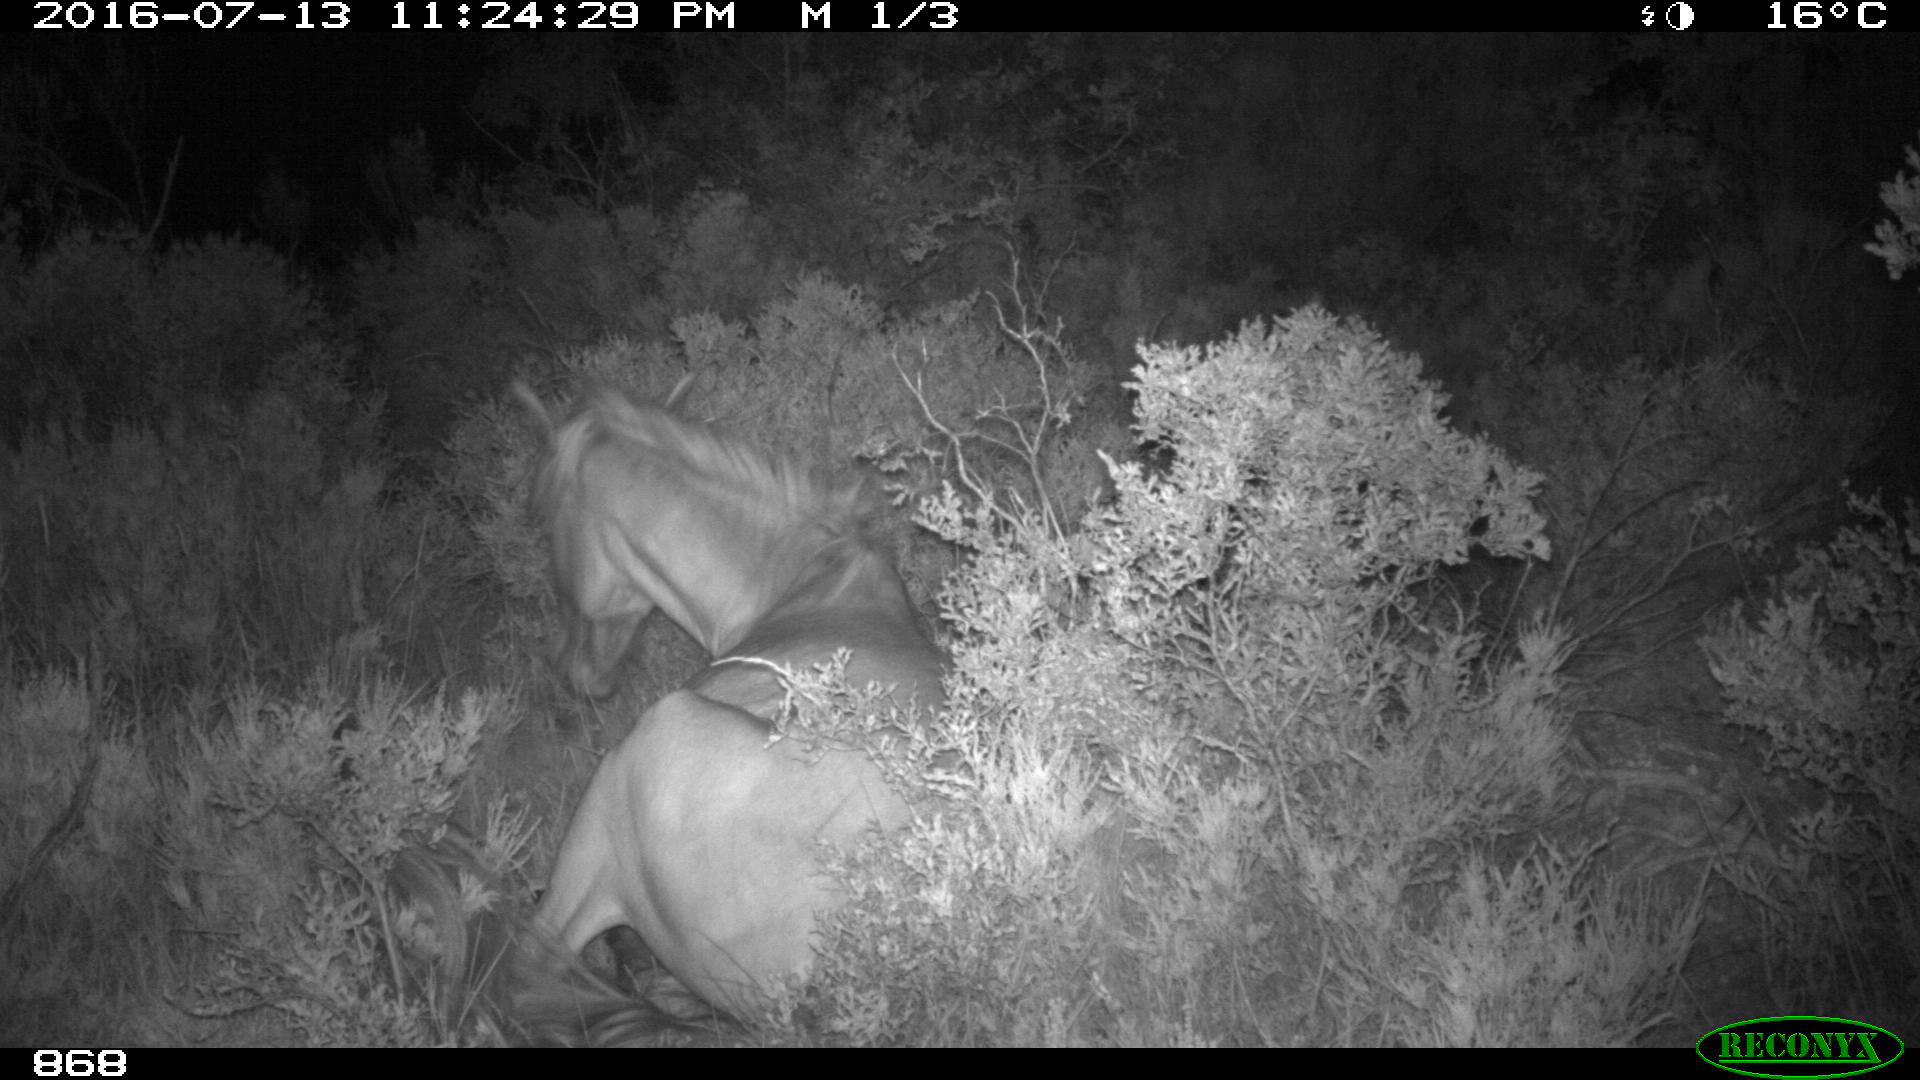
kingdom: Animalia
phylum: Chordata
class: Mammalia
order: Perissodactyla
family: Equidae
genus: Equus
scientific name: Equus caballus
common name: Horse
